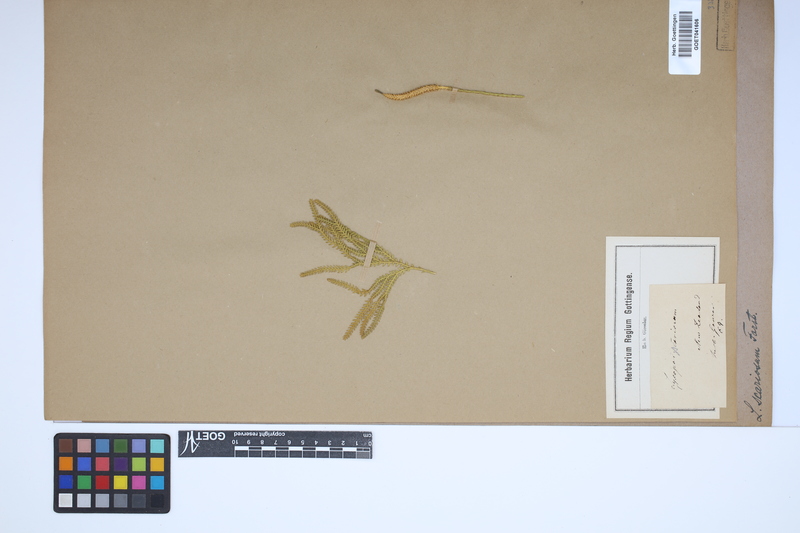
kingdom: Plantae
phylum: Tracheophyta
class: Lycopodiopsida
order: Lycopodiales
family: Lycopodiaceae
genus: Diphasium
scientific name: Diphasium scariosum
